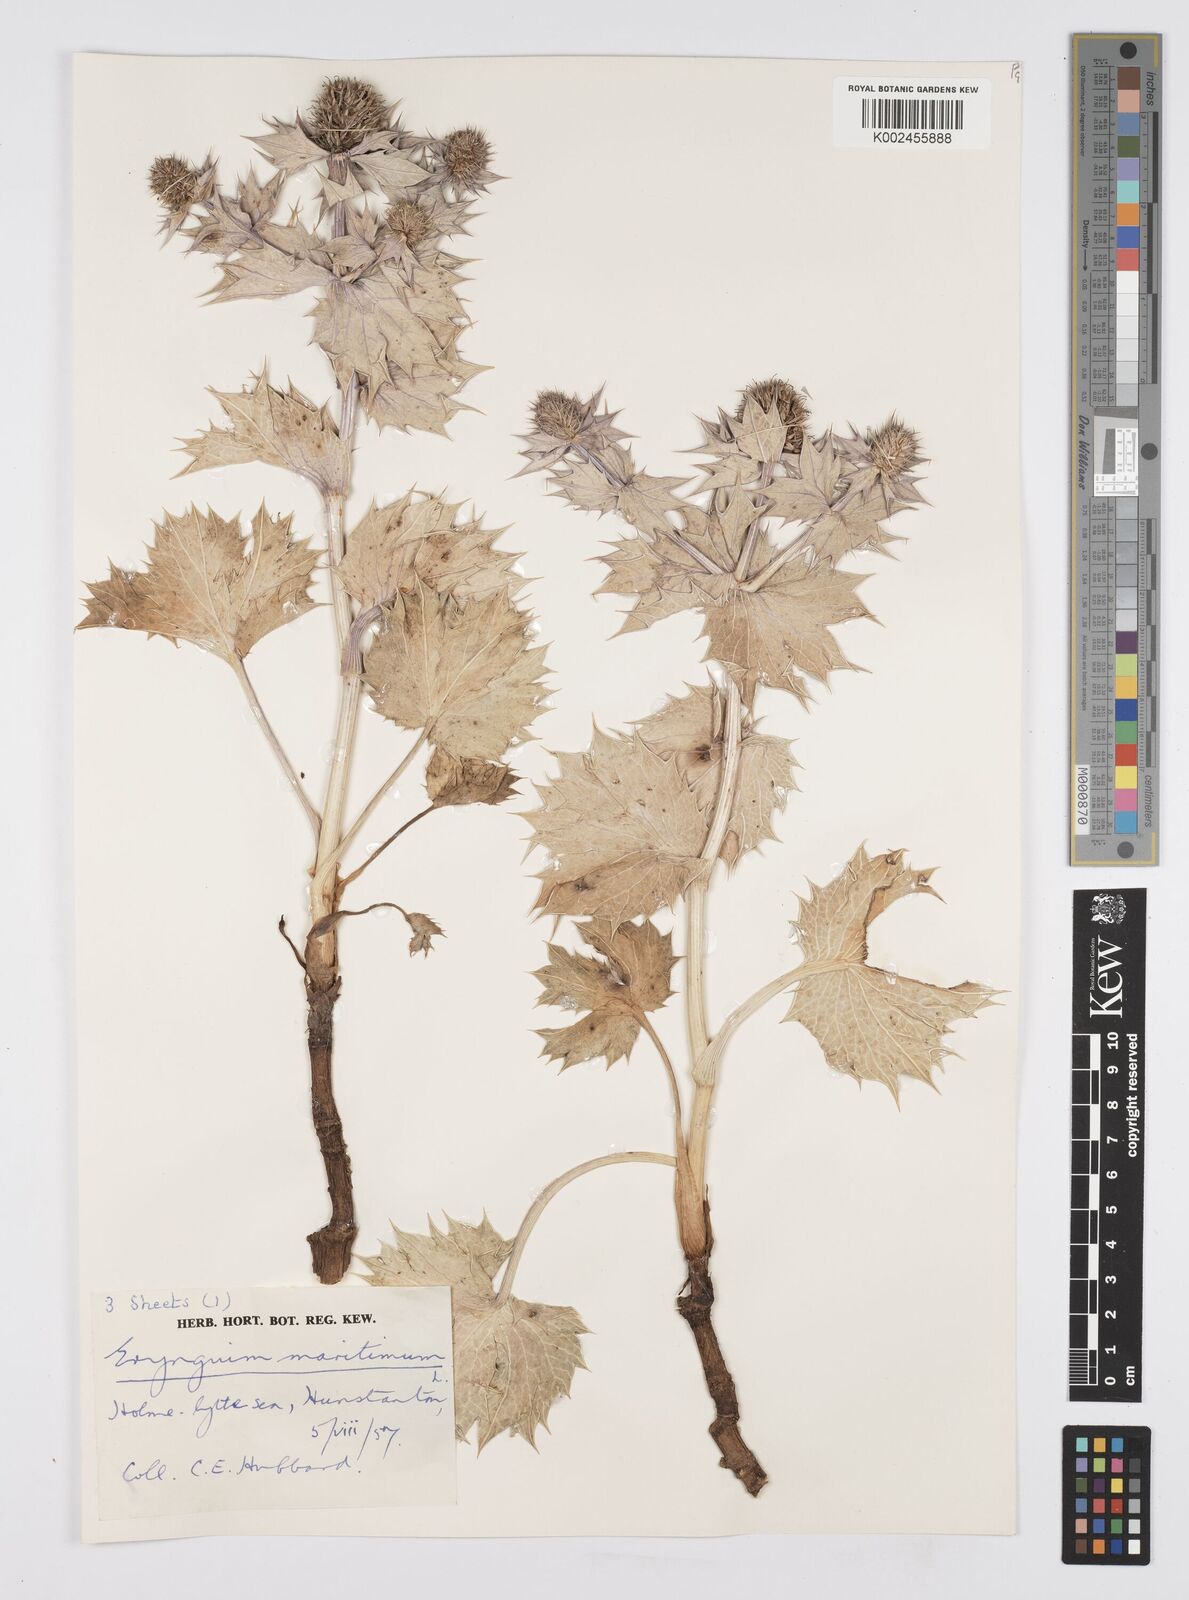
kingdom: Plantae
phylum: Tracheophyta
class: Magnoliopsida
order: Apiales
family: Apiaceae
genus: Eryngium
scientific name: Eryngium maritimum
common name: Sea-holly
